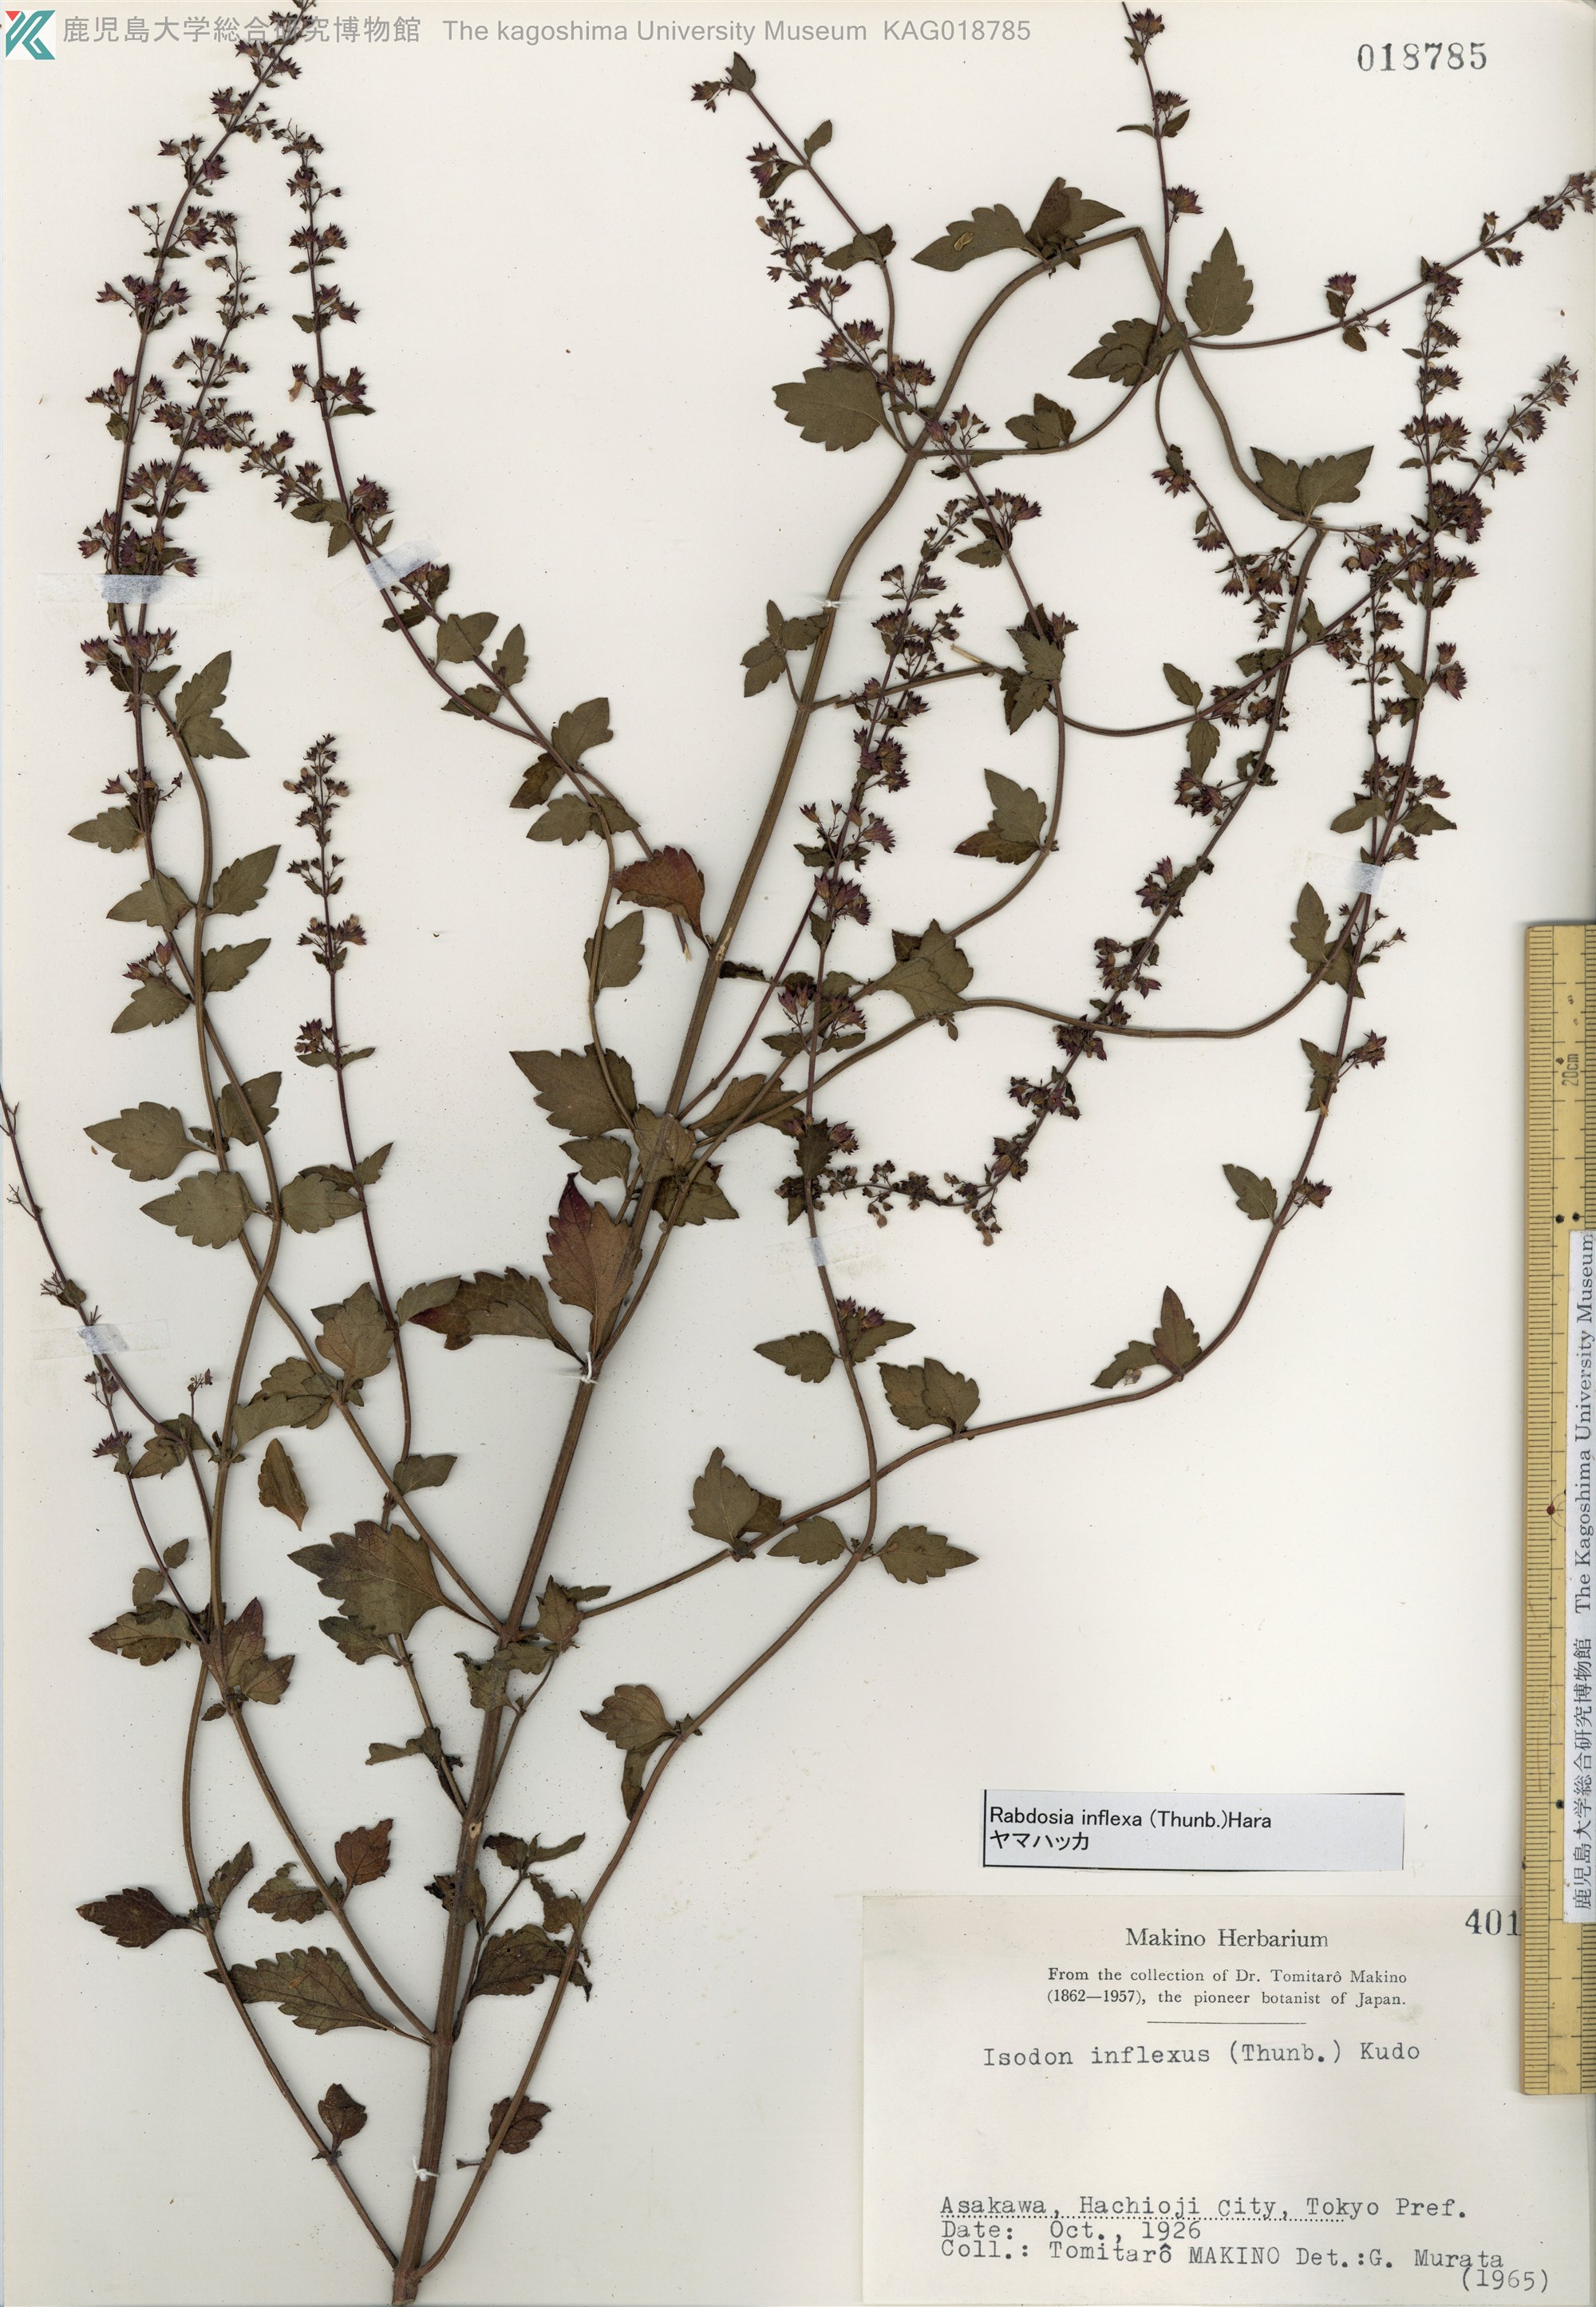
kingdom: Plantae
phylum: Tracheophyta
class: Magnoliopsida
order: Lamiales
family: Lamiaceae
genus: Isodon
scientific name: Isodon inflexus
